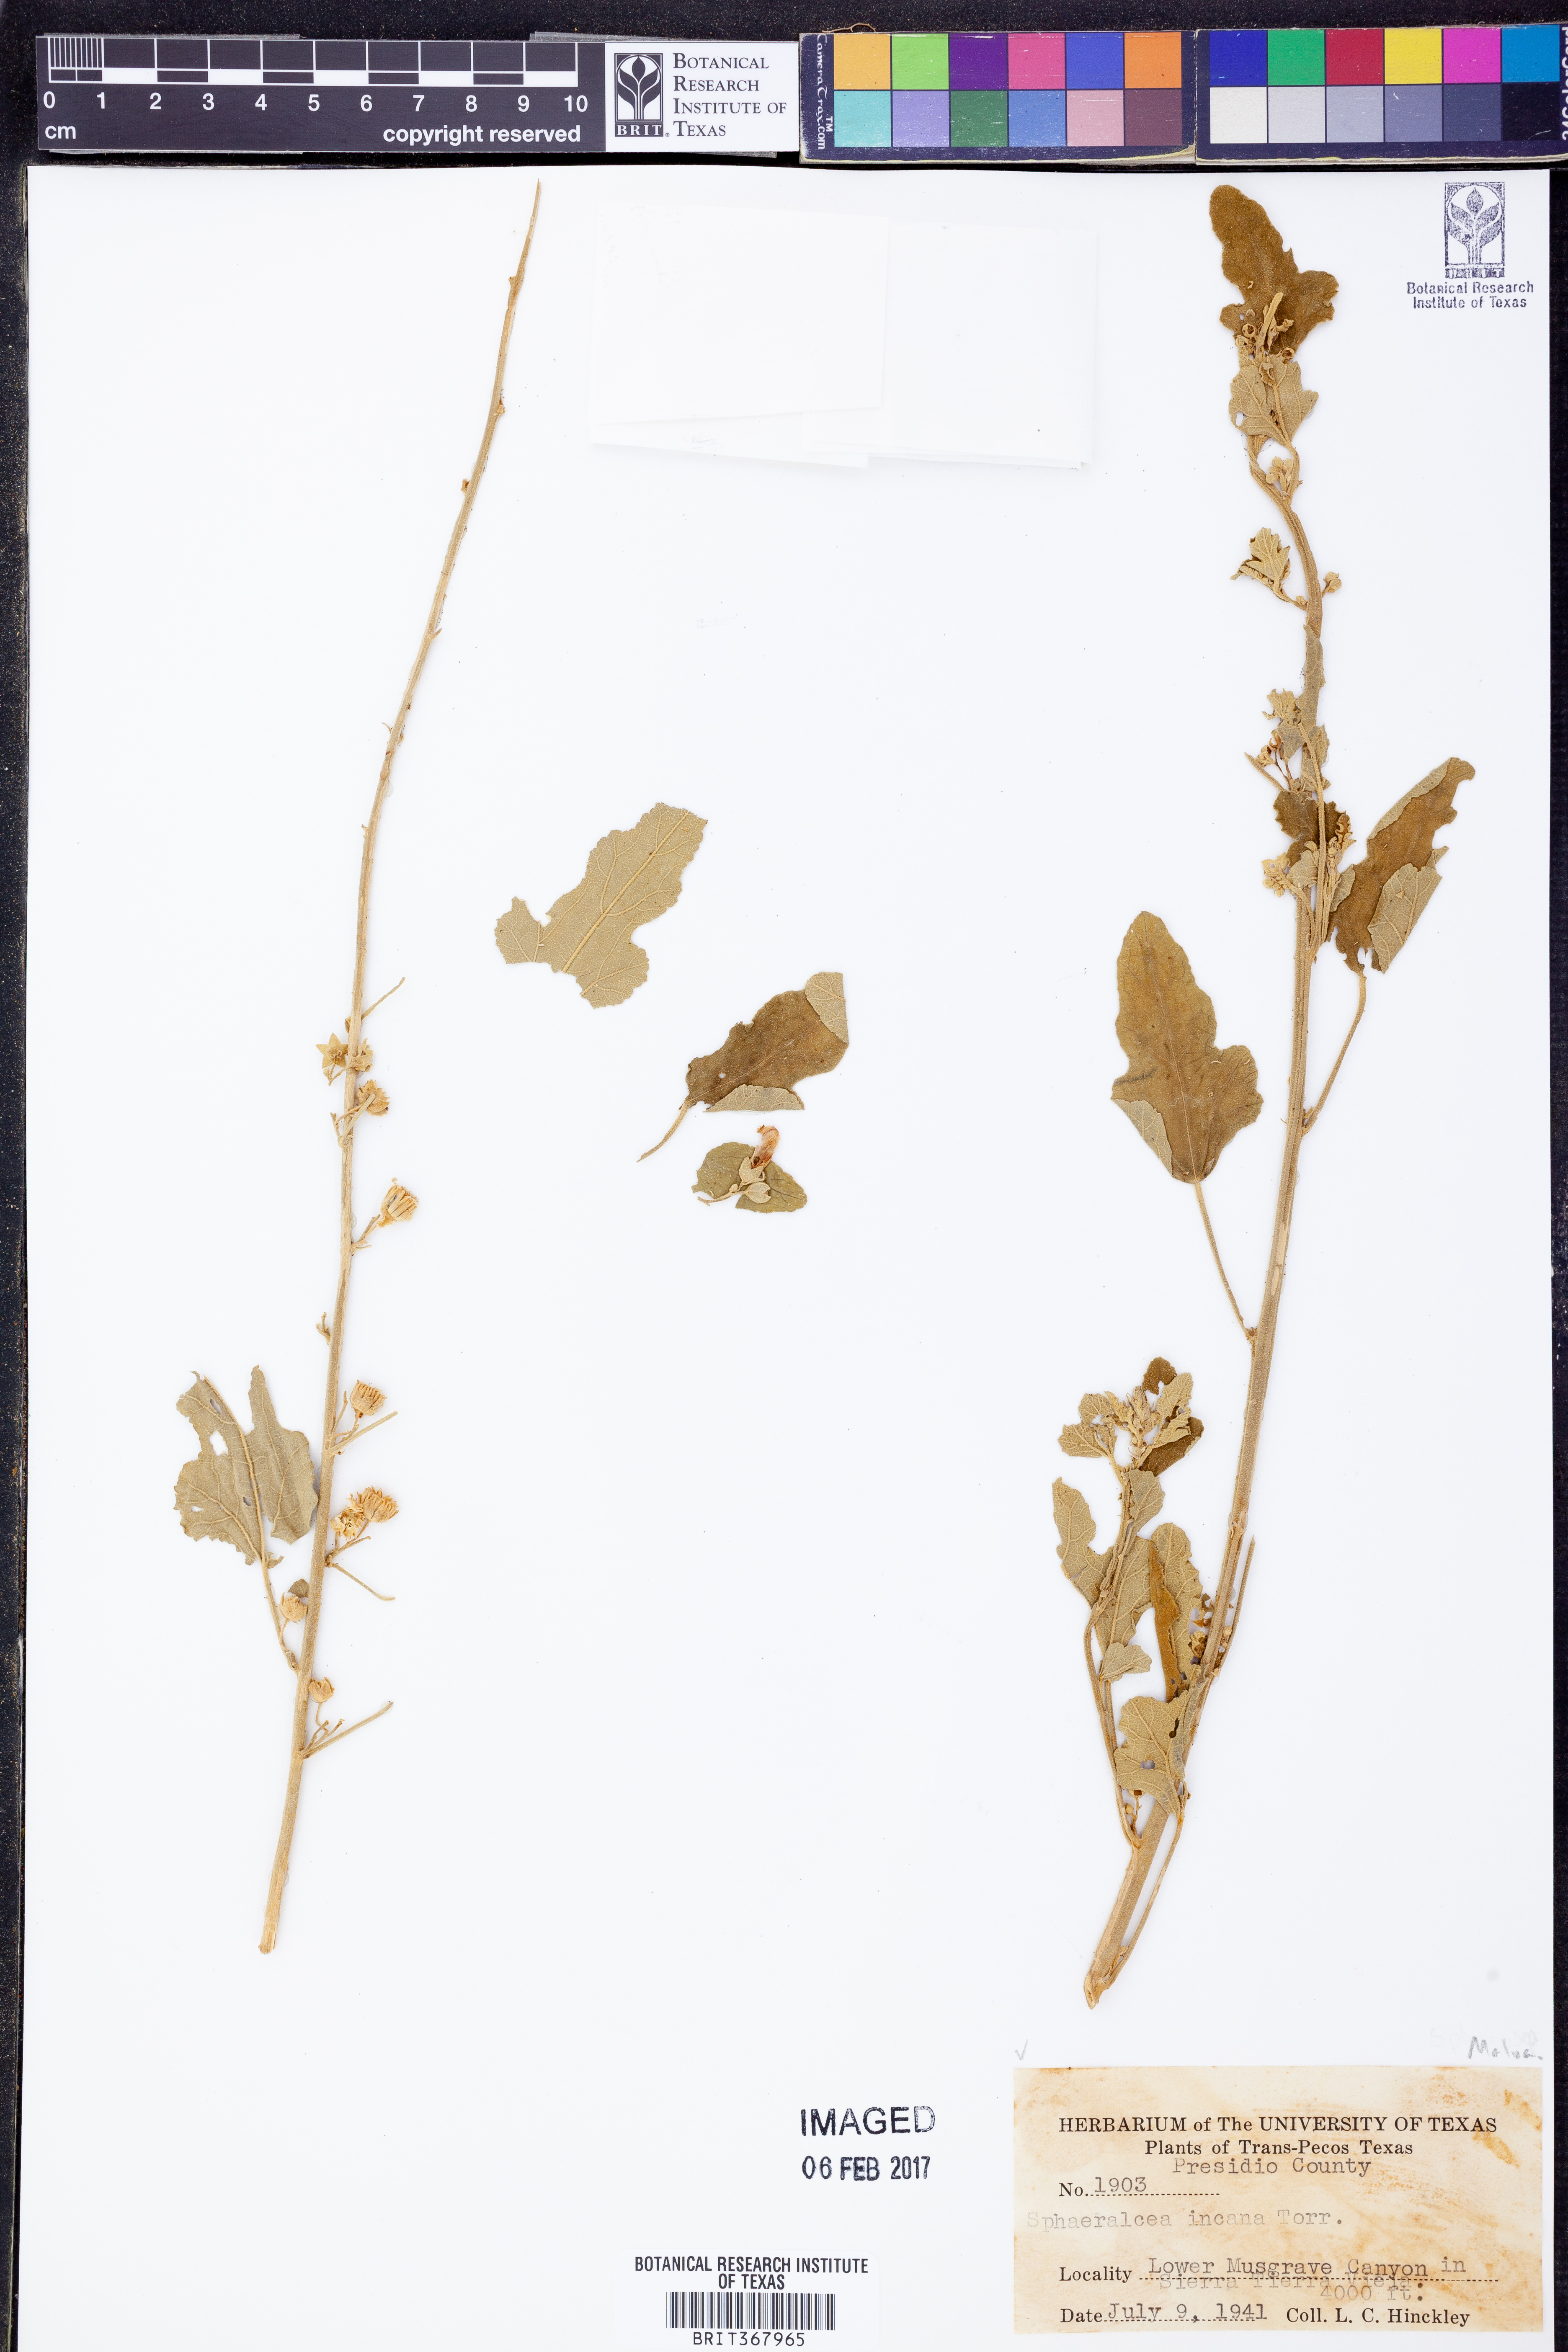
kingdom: Plantae
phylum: Tracheophyta
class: Magnoliopsida
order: Malvales
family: Malvaceae
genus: Sphaeralcea
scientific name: Sphaeralcea incana
